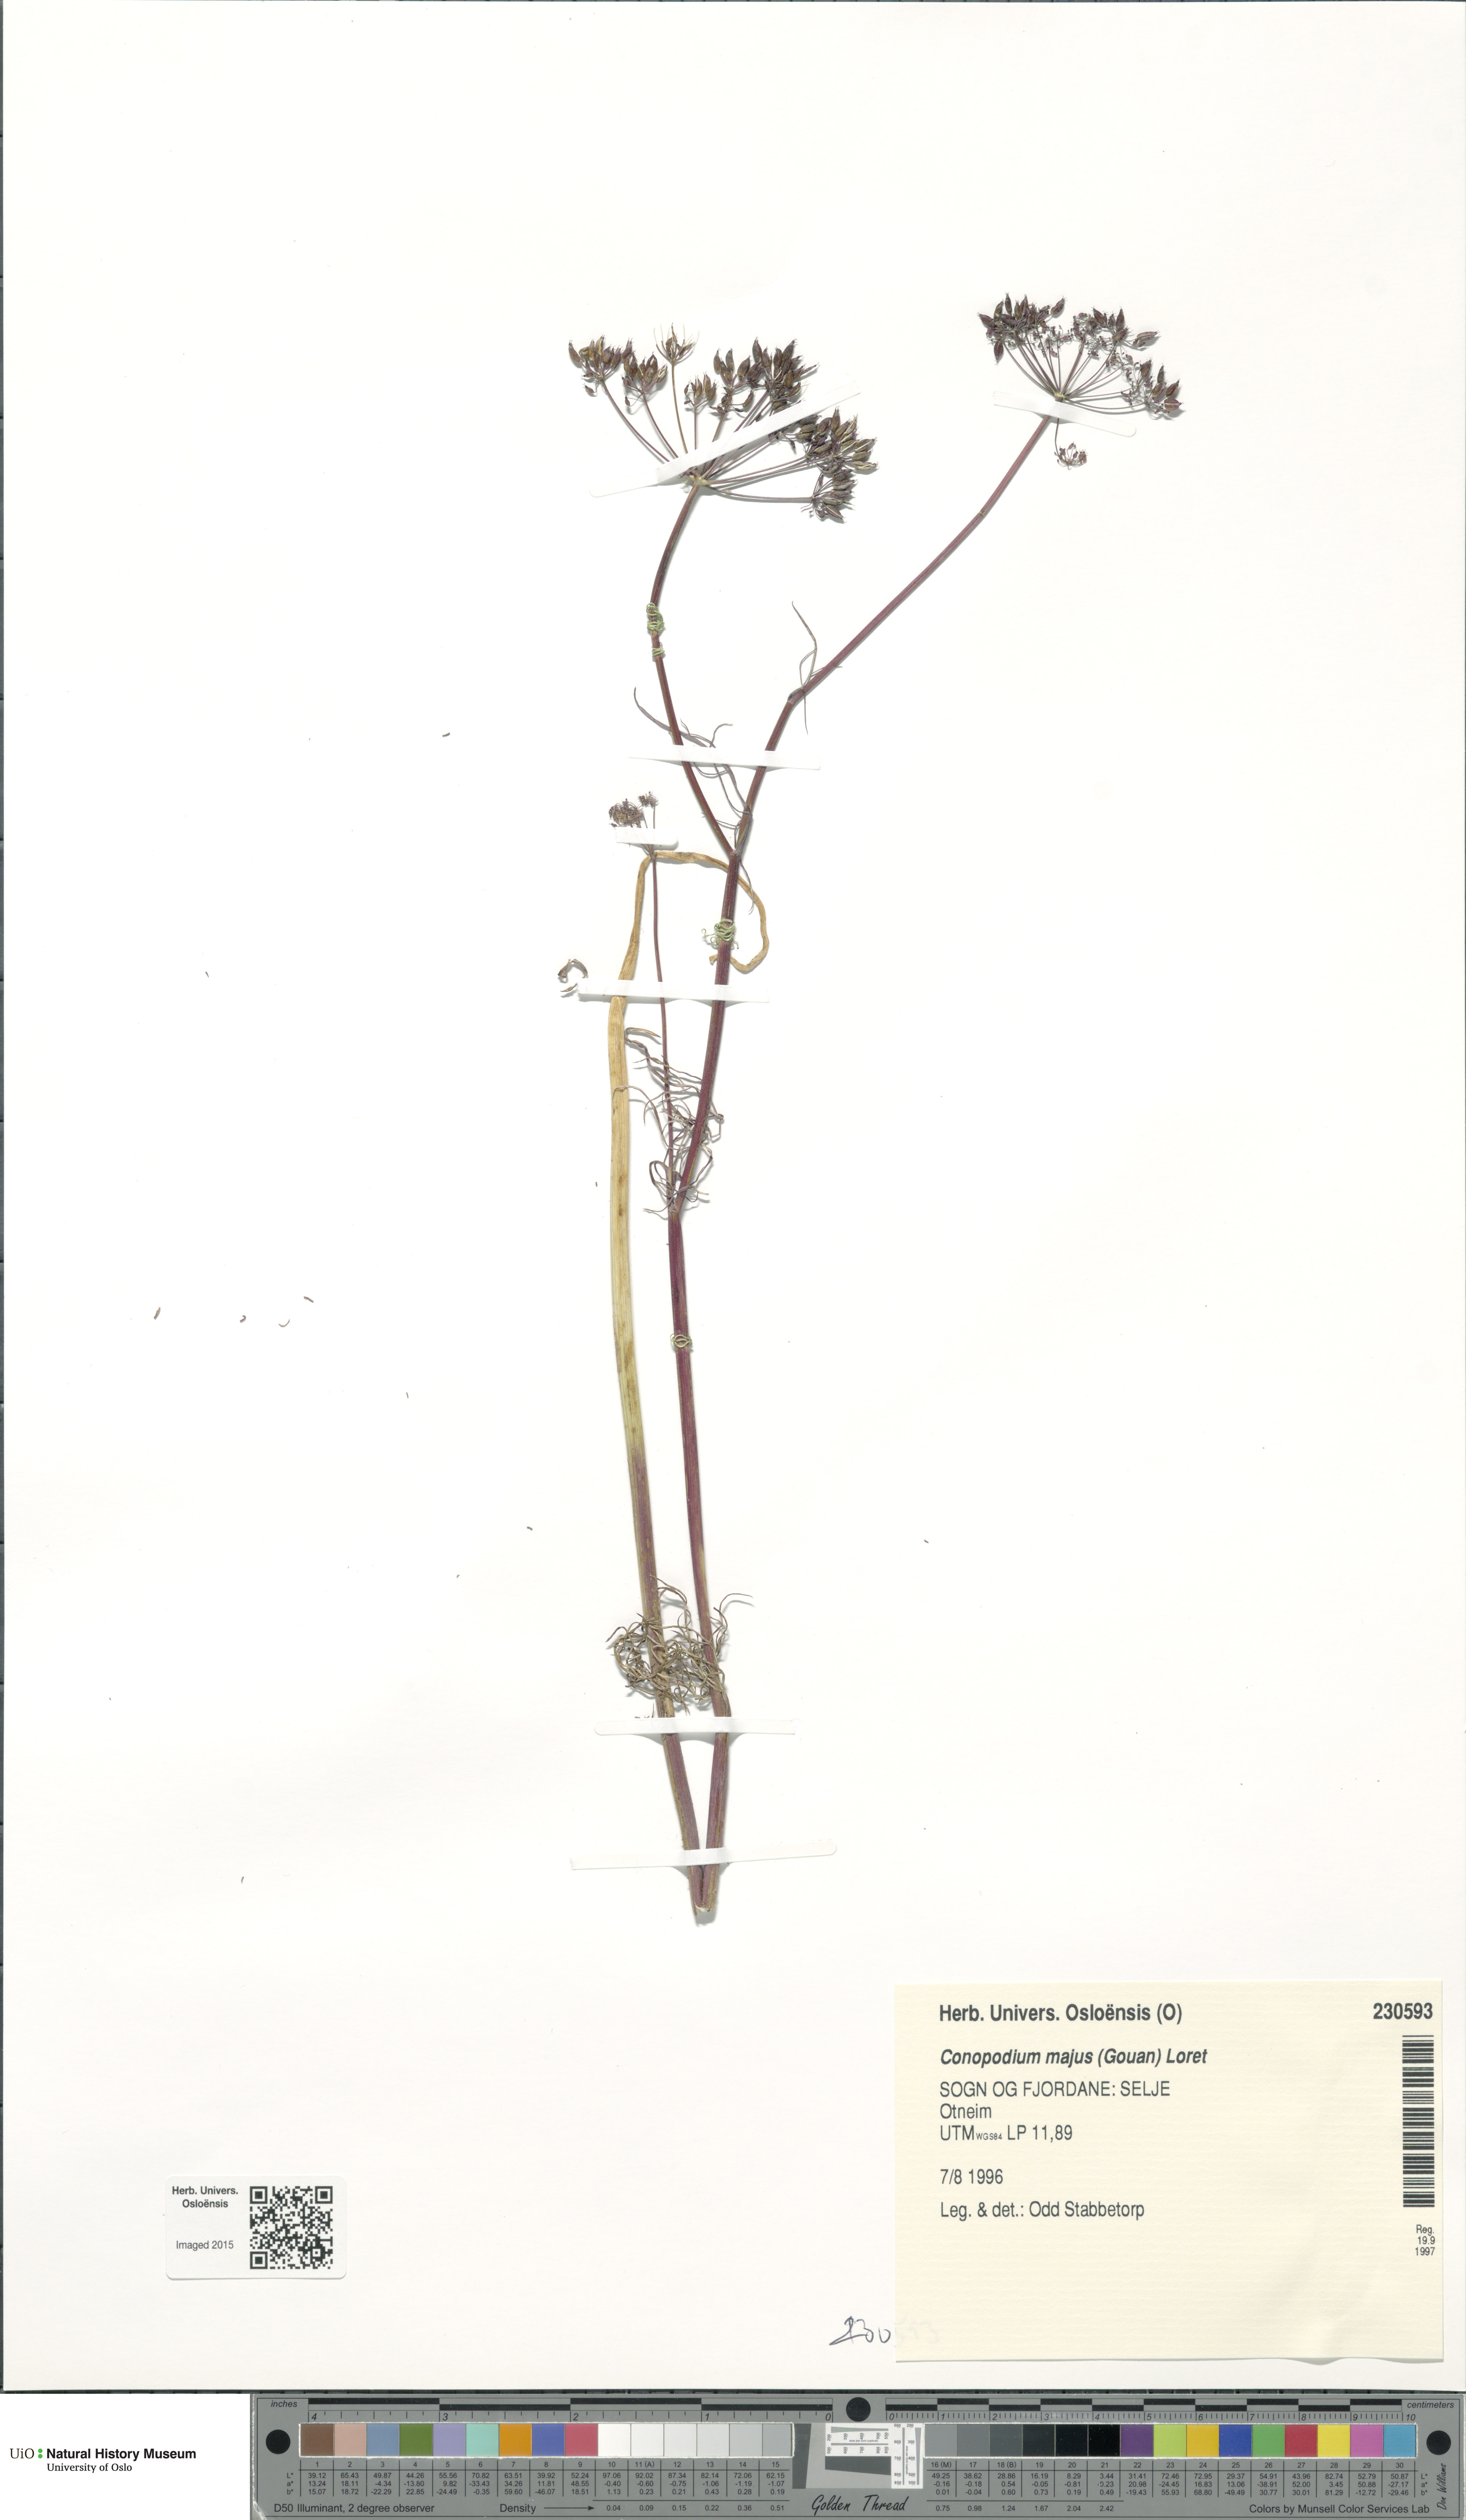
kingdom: Plantae
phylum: Tracheophyta
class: Magnoliopsida
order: Apiales
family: Apiaceae
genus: Conopodium
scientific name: Conopodium majus
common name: Pignut
